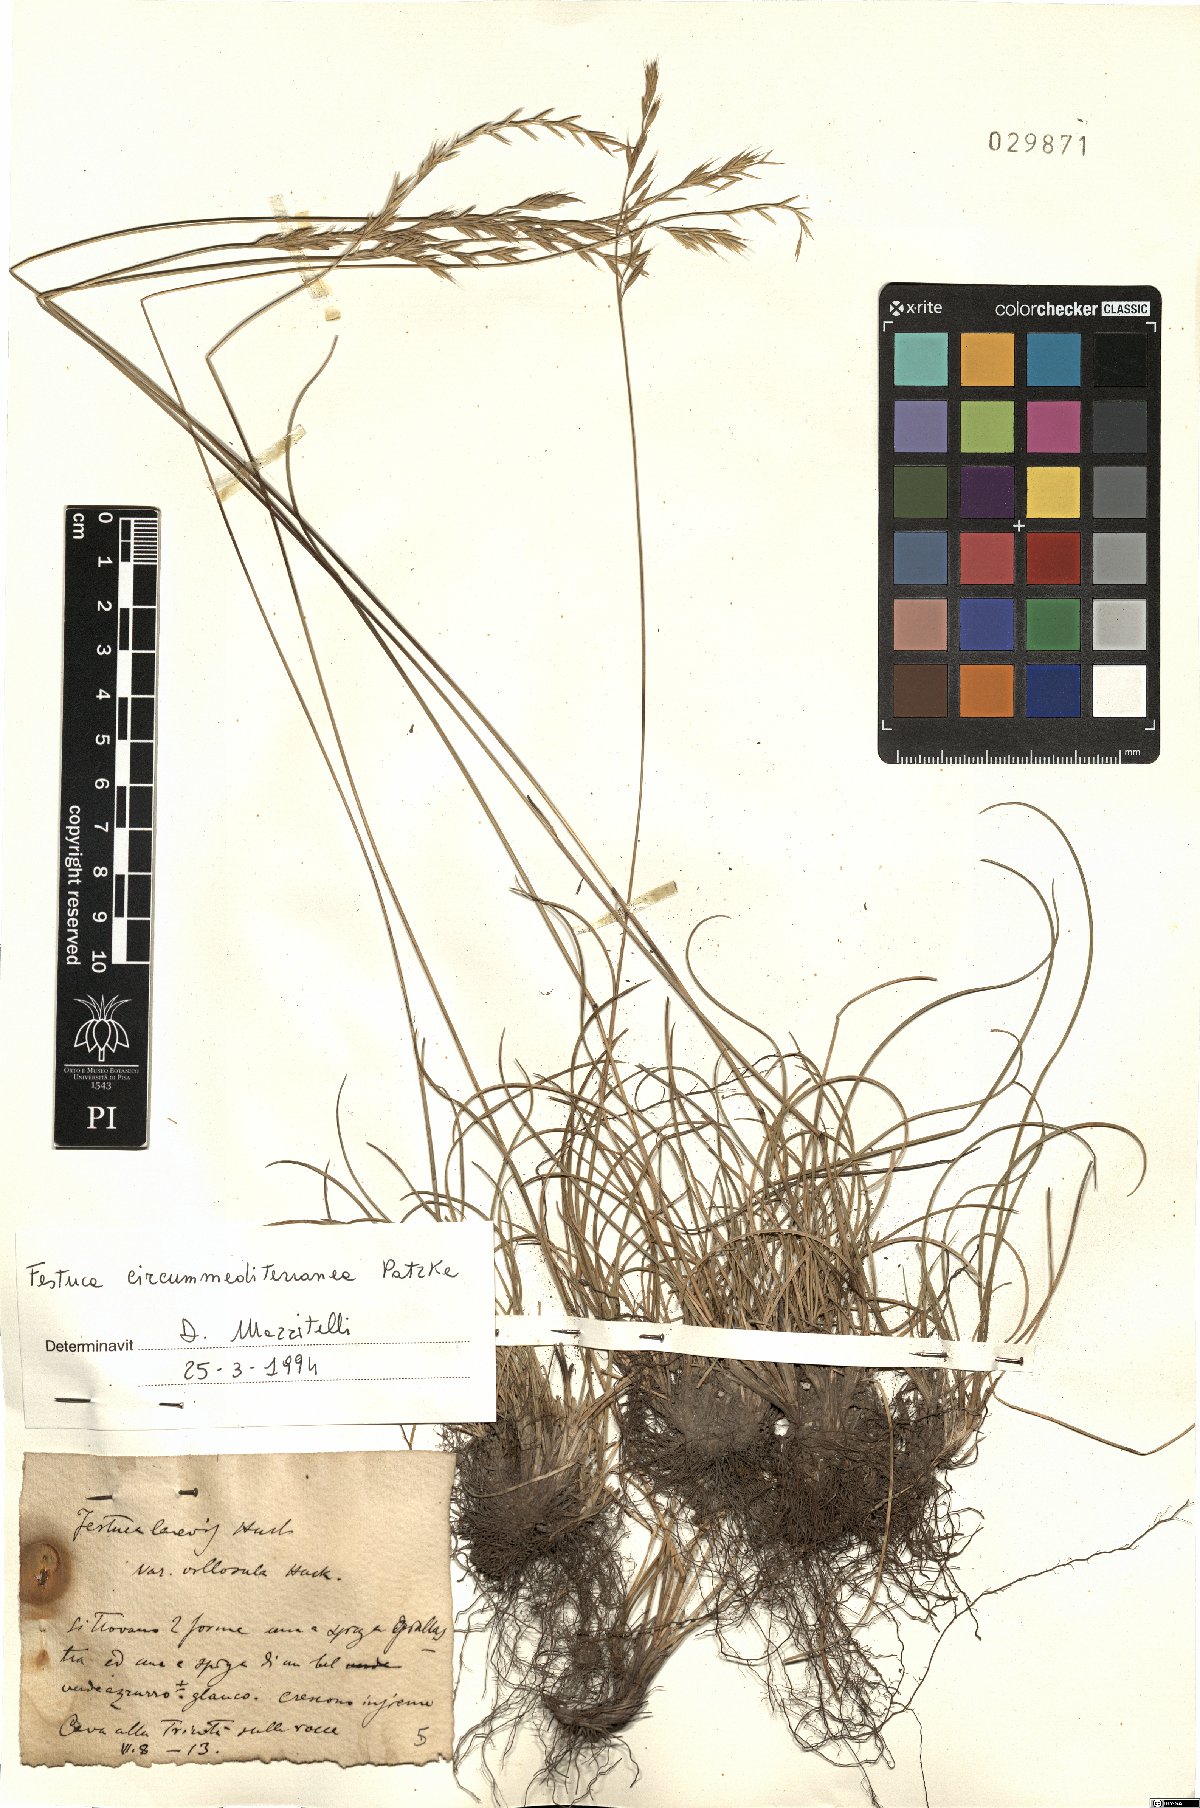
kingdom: Plantae
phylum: Tracheophyta
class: Liliopsida
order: Poales
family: Poaceae
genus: Festuca
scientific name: Festuca circummediterranea
